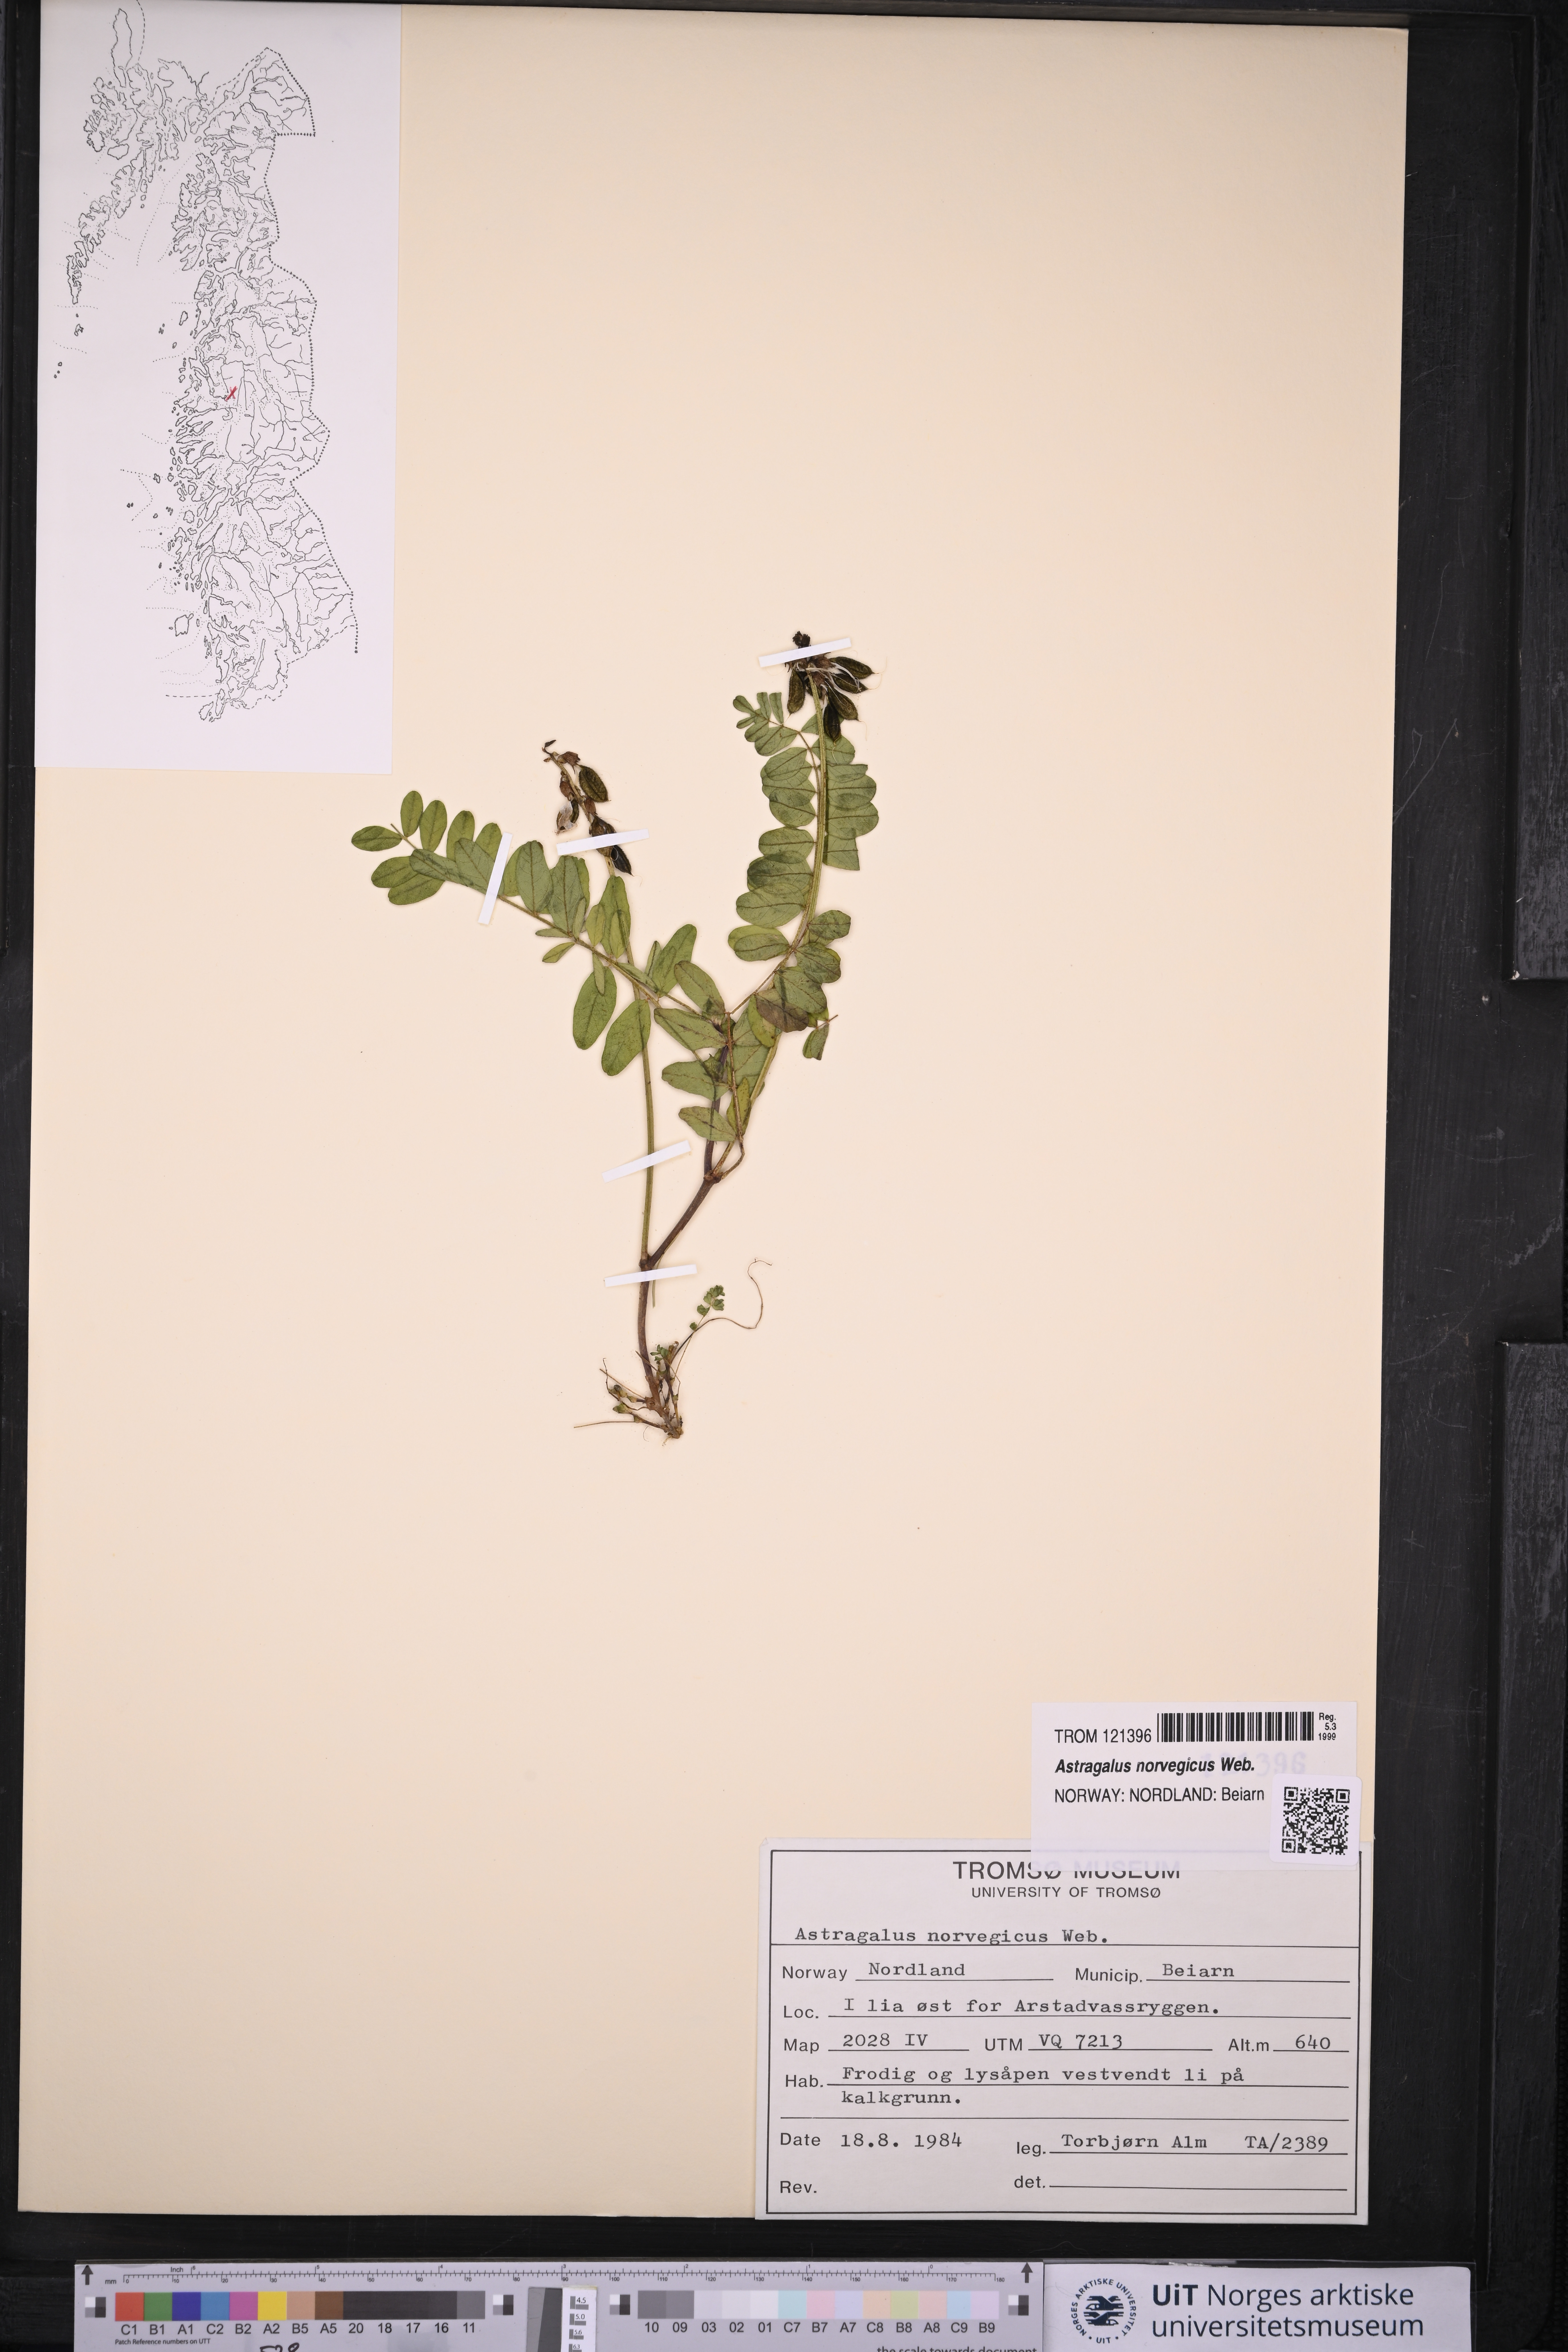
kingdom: Plantae
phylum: Tracheophyta
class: Magnoliopsida
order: Fabales
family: Fabaceae
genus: Astragalus
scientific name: Astragalus norvegicus
